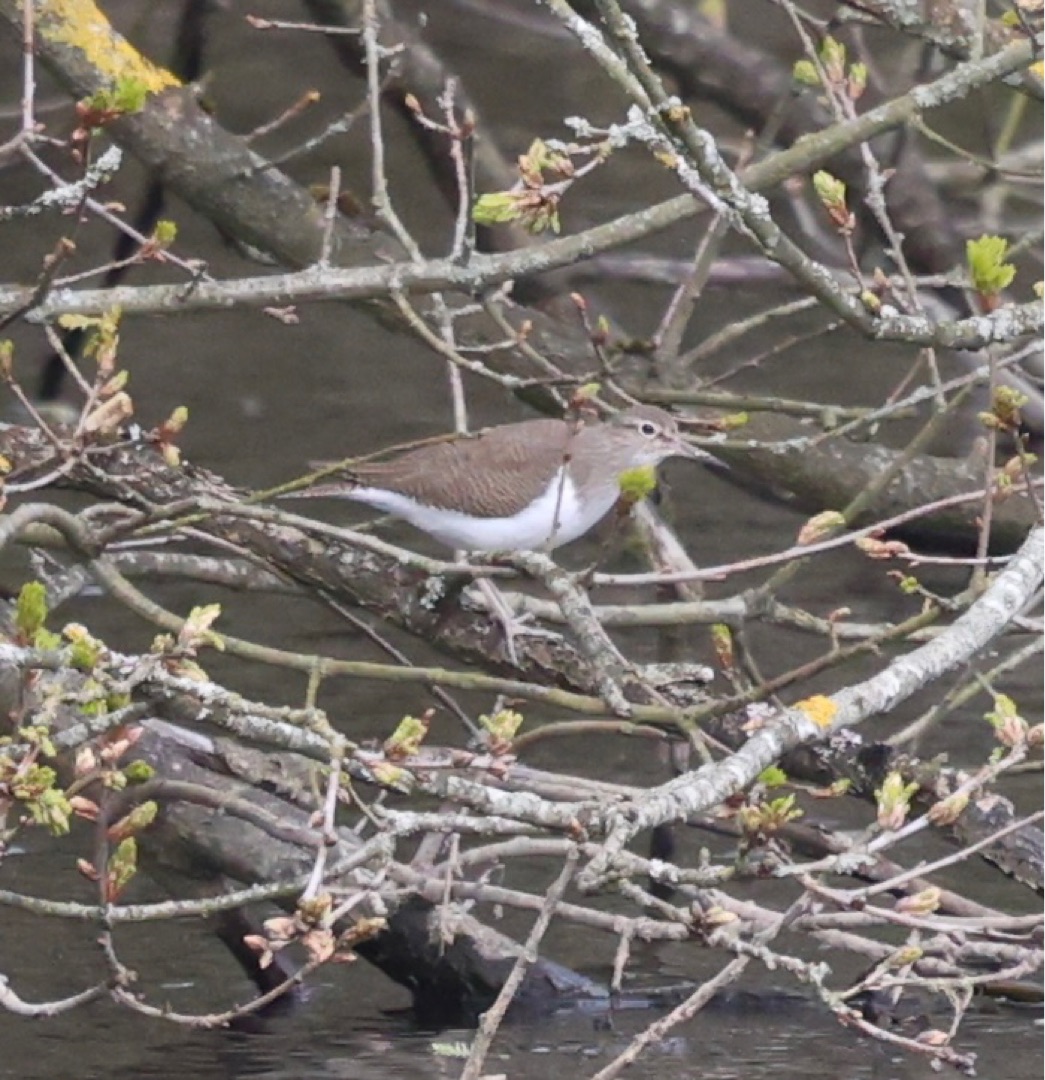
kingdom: Animalia
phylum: Chordata
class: Aves
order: Charadriiformes
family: Scolopacidae
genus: Actitis
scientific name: Actitis hypoleucos
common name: Mudderklire
